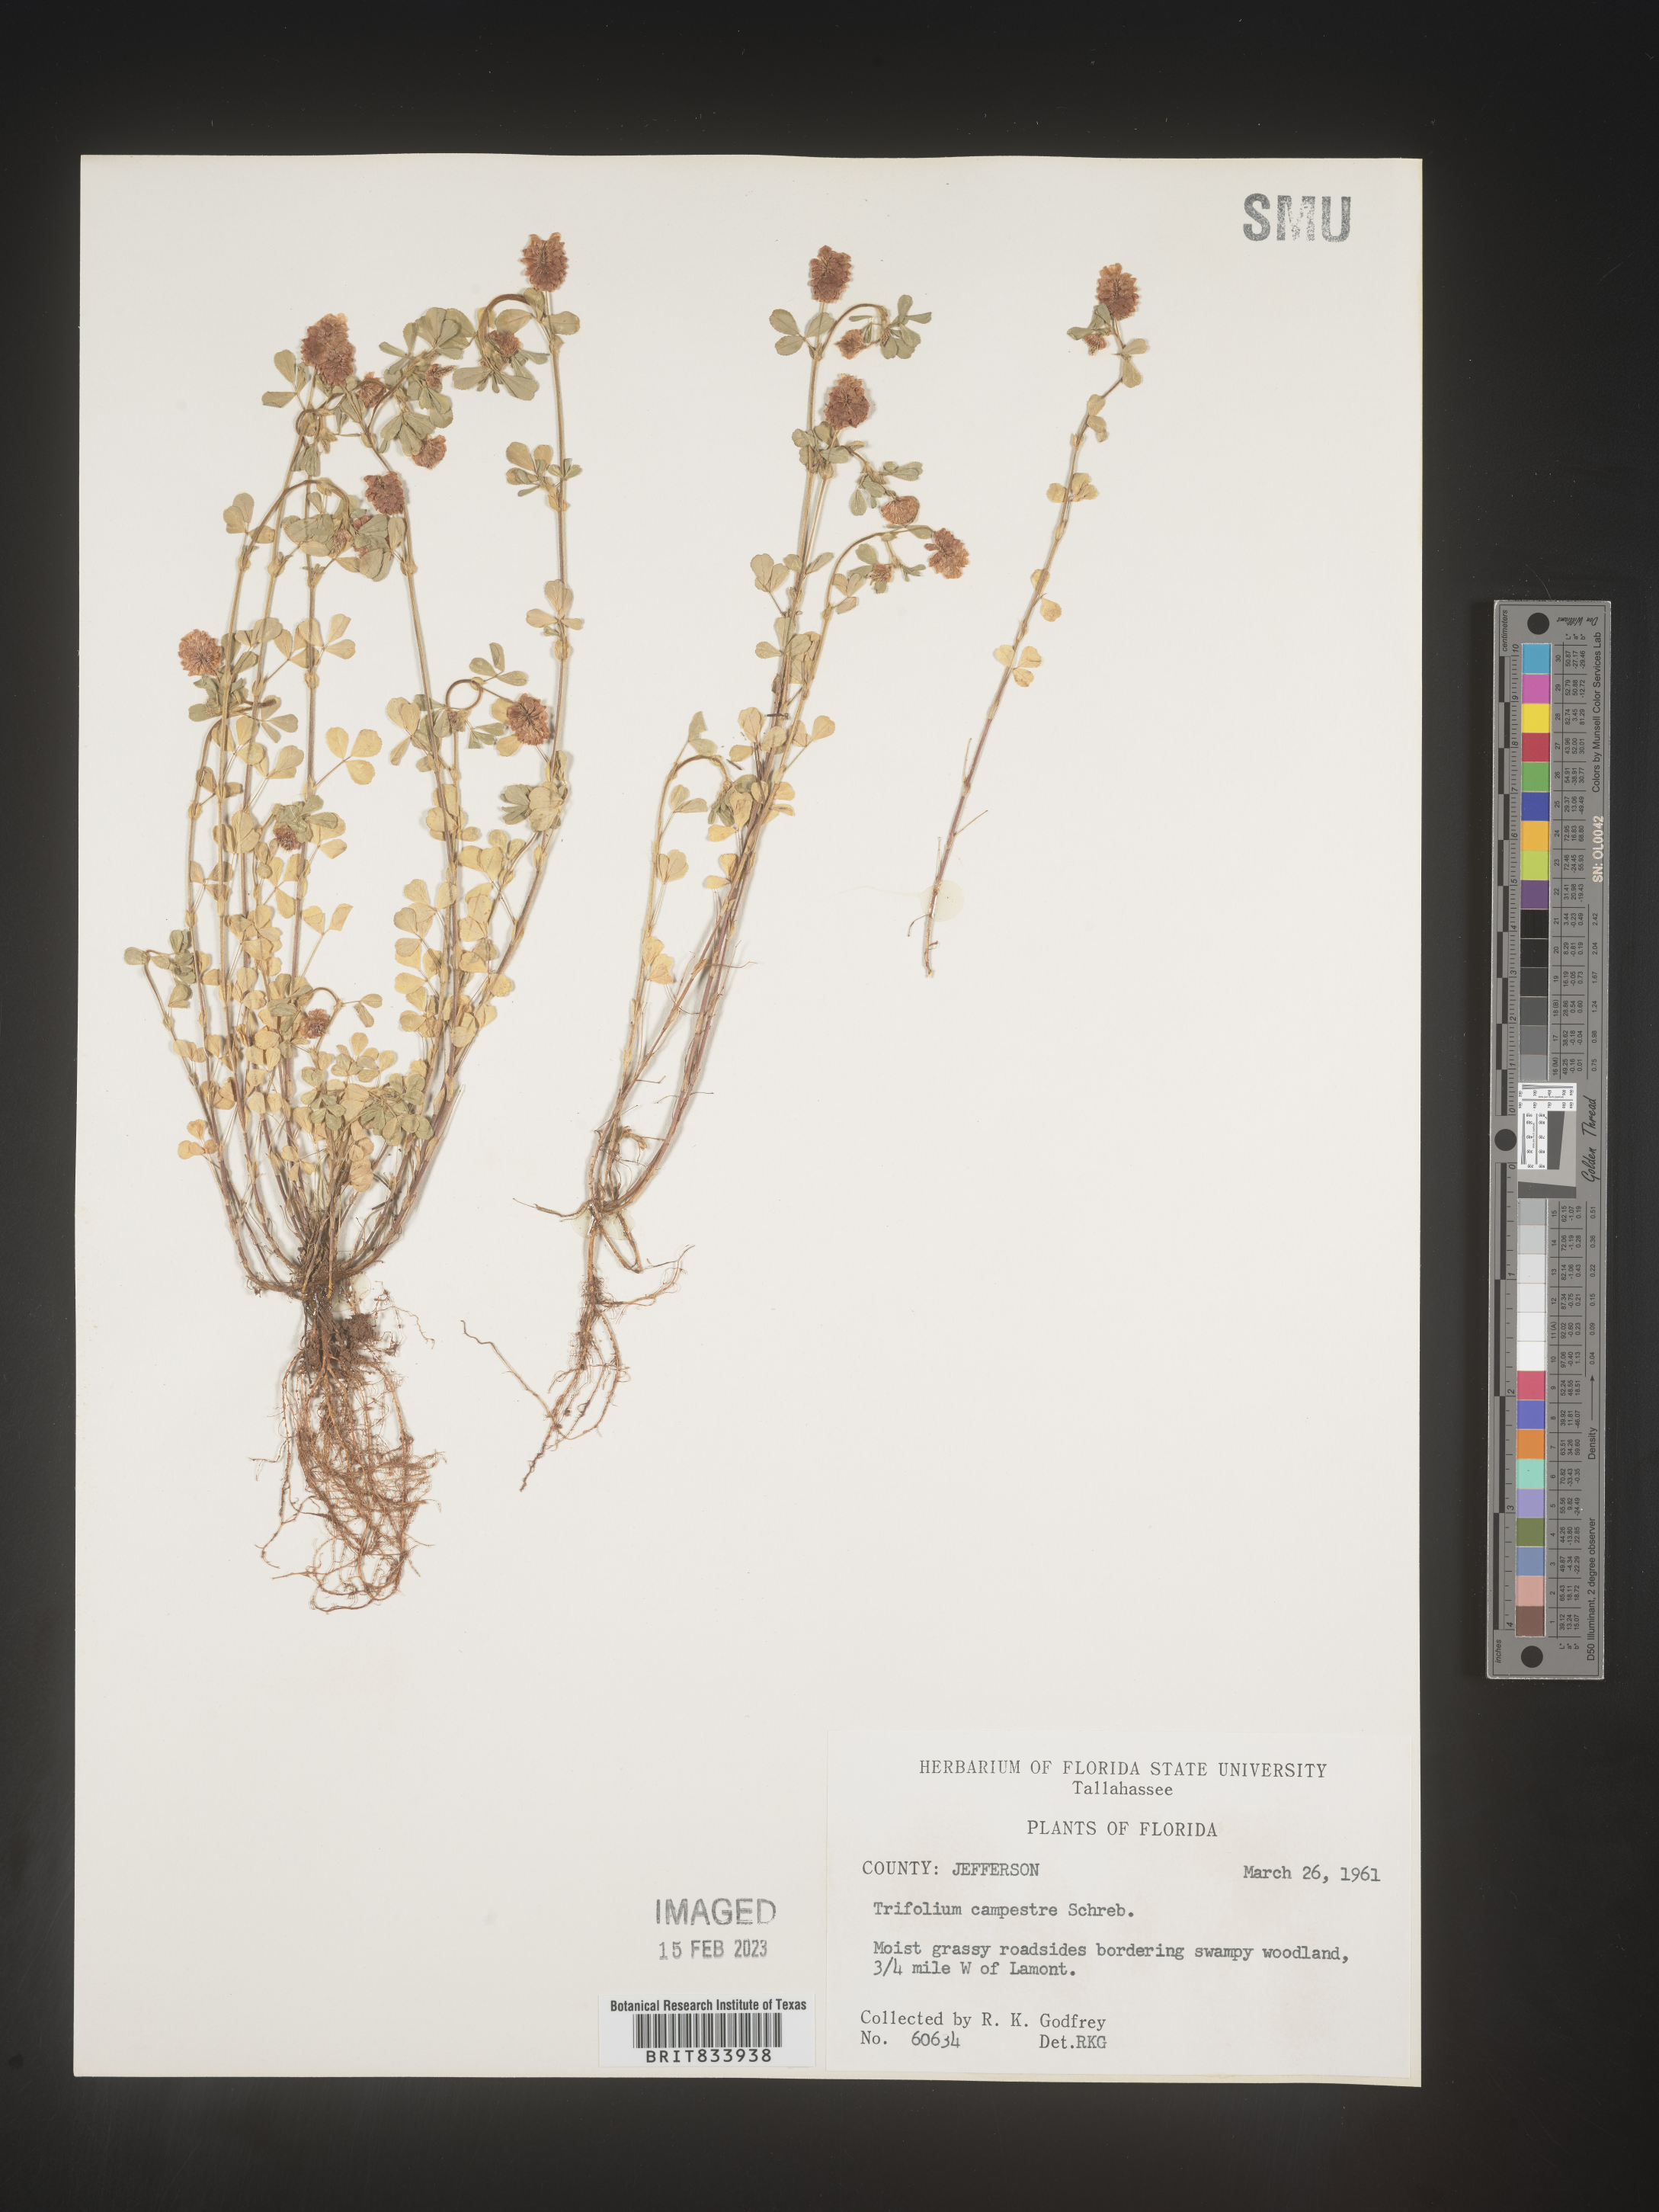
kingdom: Plantae
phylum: Tracheophyta
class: Magnoliopsida
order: Fabales
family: Fabaceae
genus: Trifolium
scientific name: Trifolium campestre
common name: Field clover
